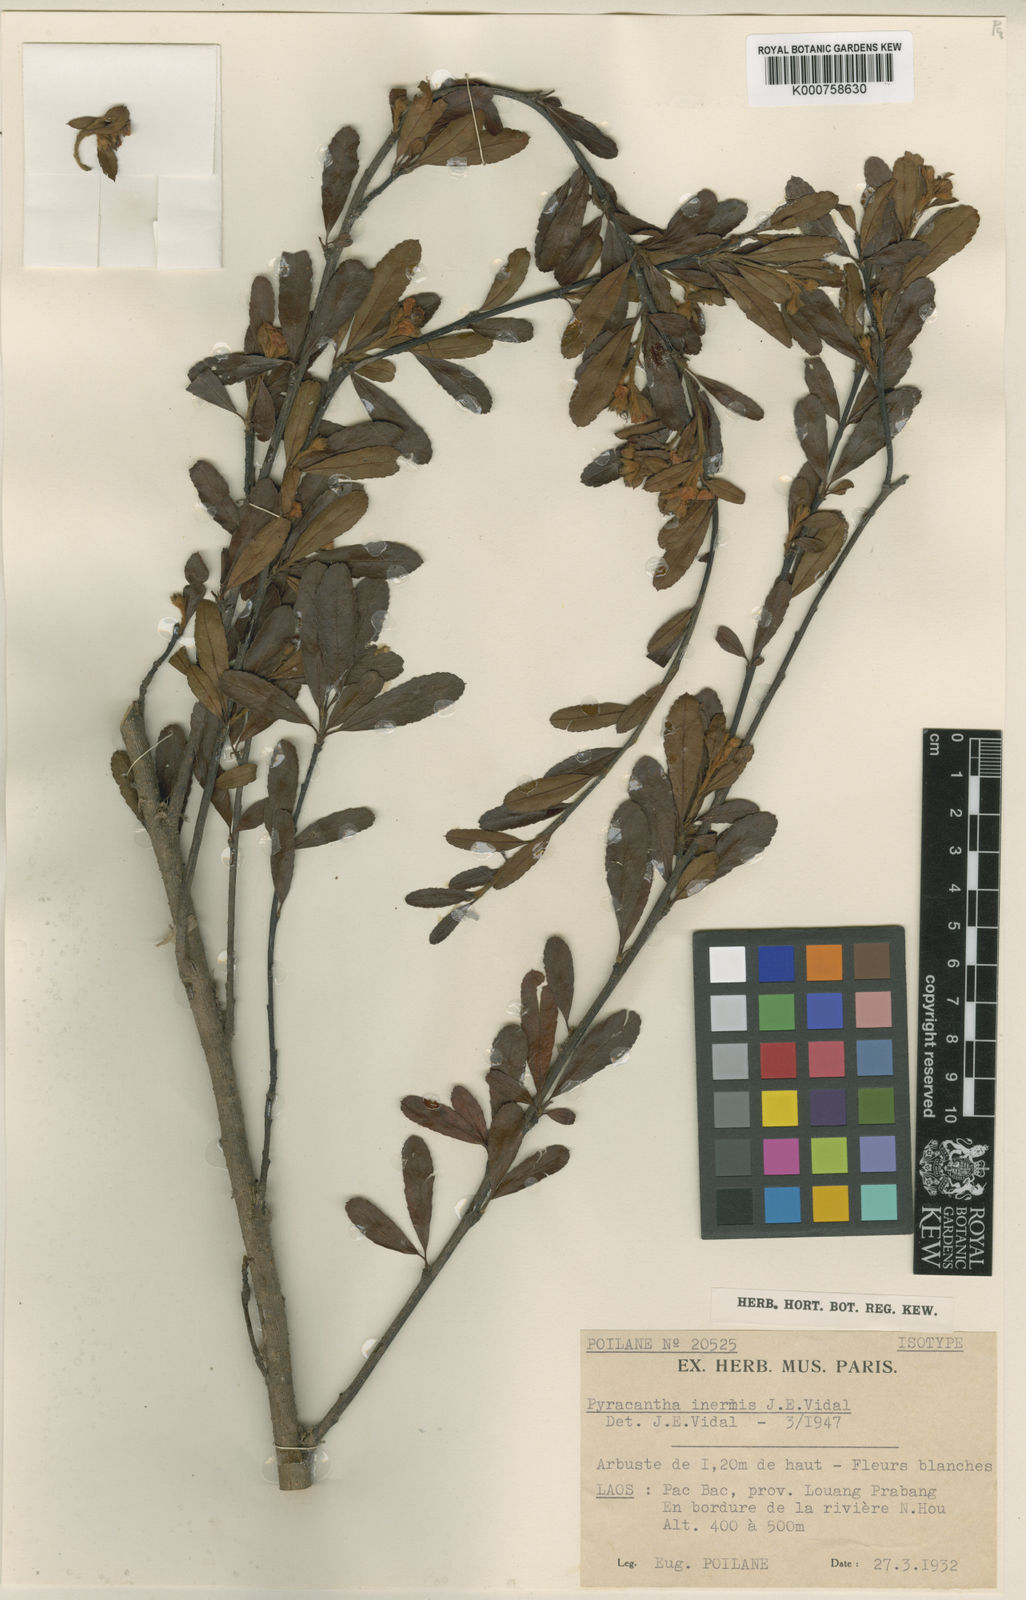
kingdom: Plantae
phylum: Tracheophyta
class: Magnoliopsida
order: Rosales
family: Rosaceae
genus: Pyracantha
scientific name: Pyracantha inermis
